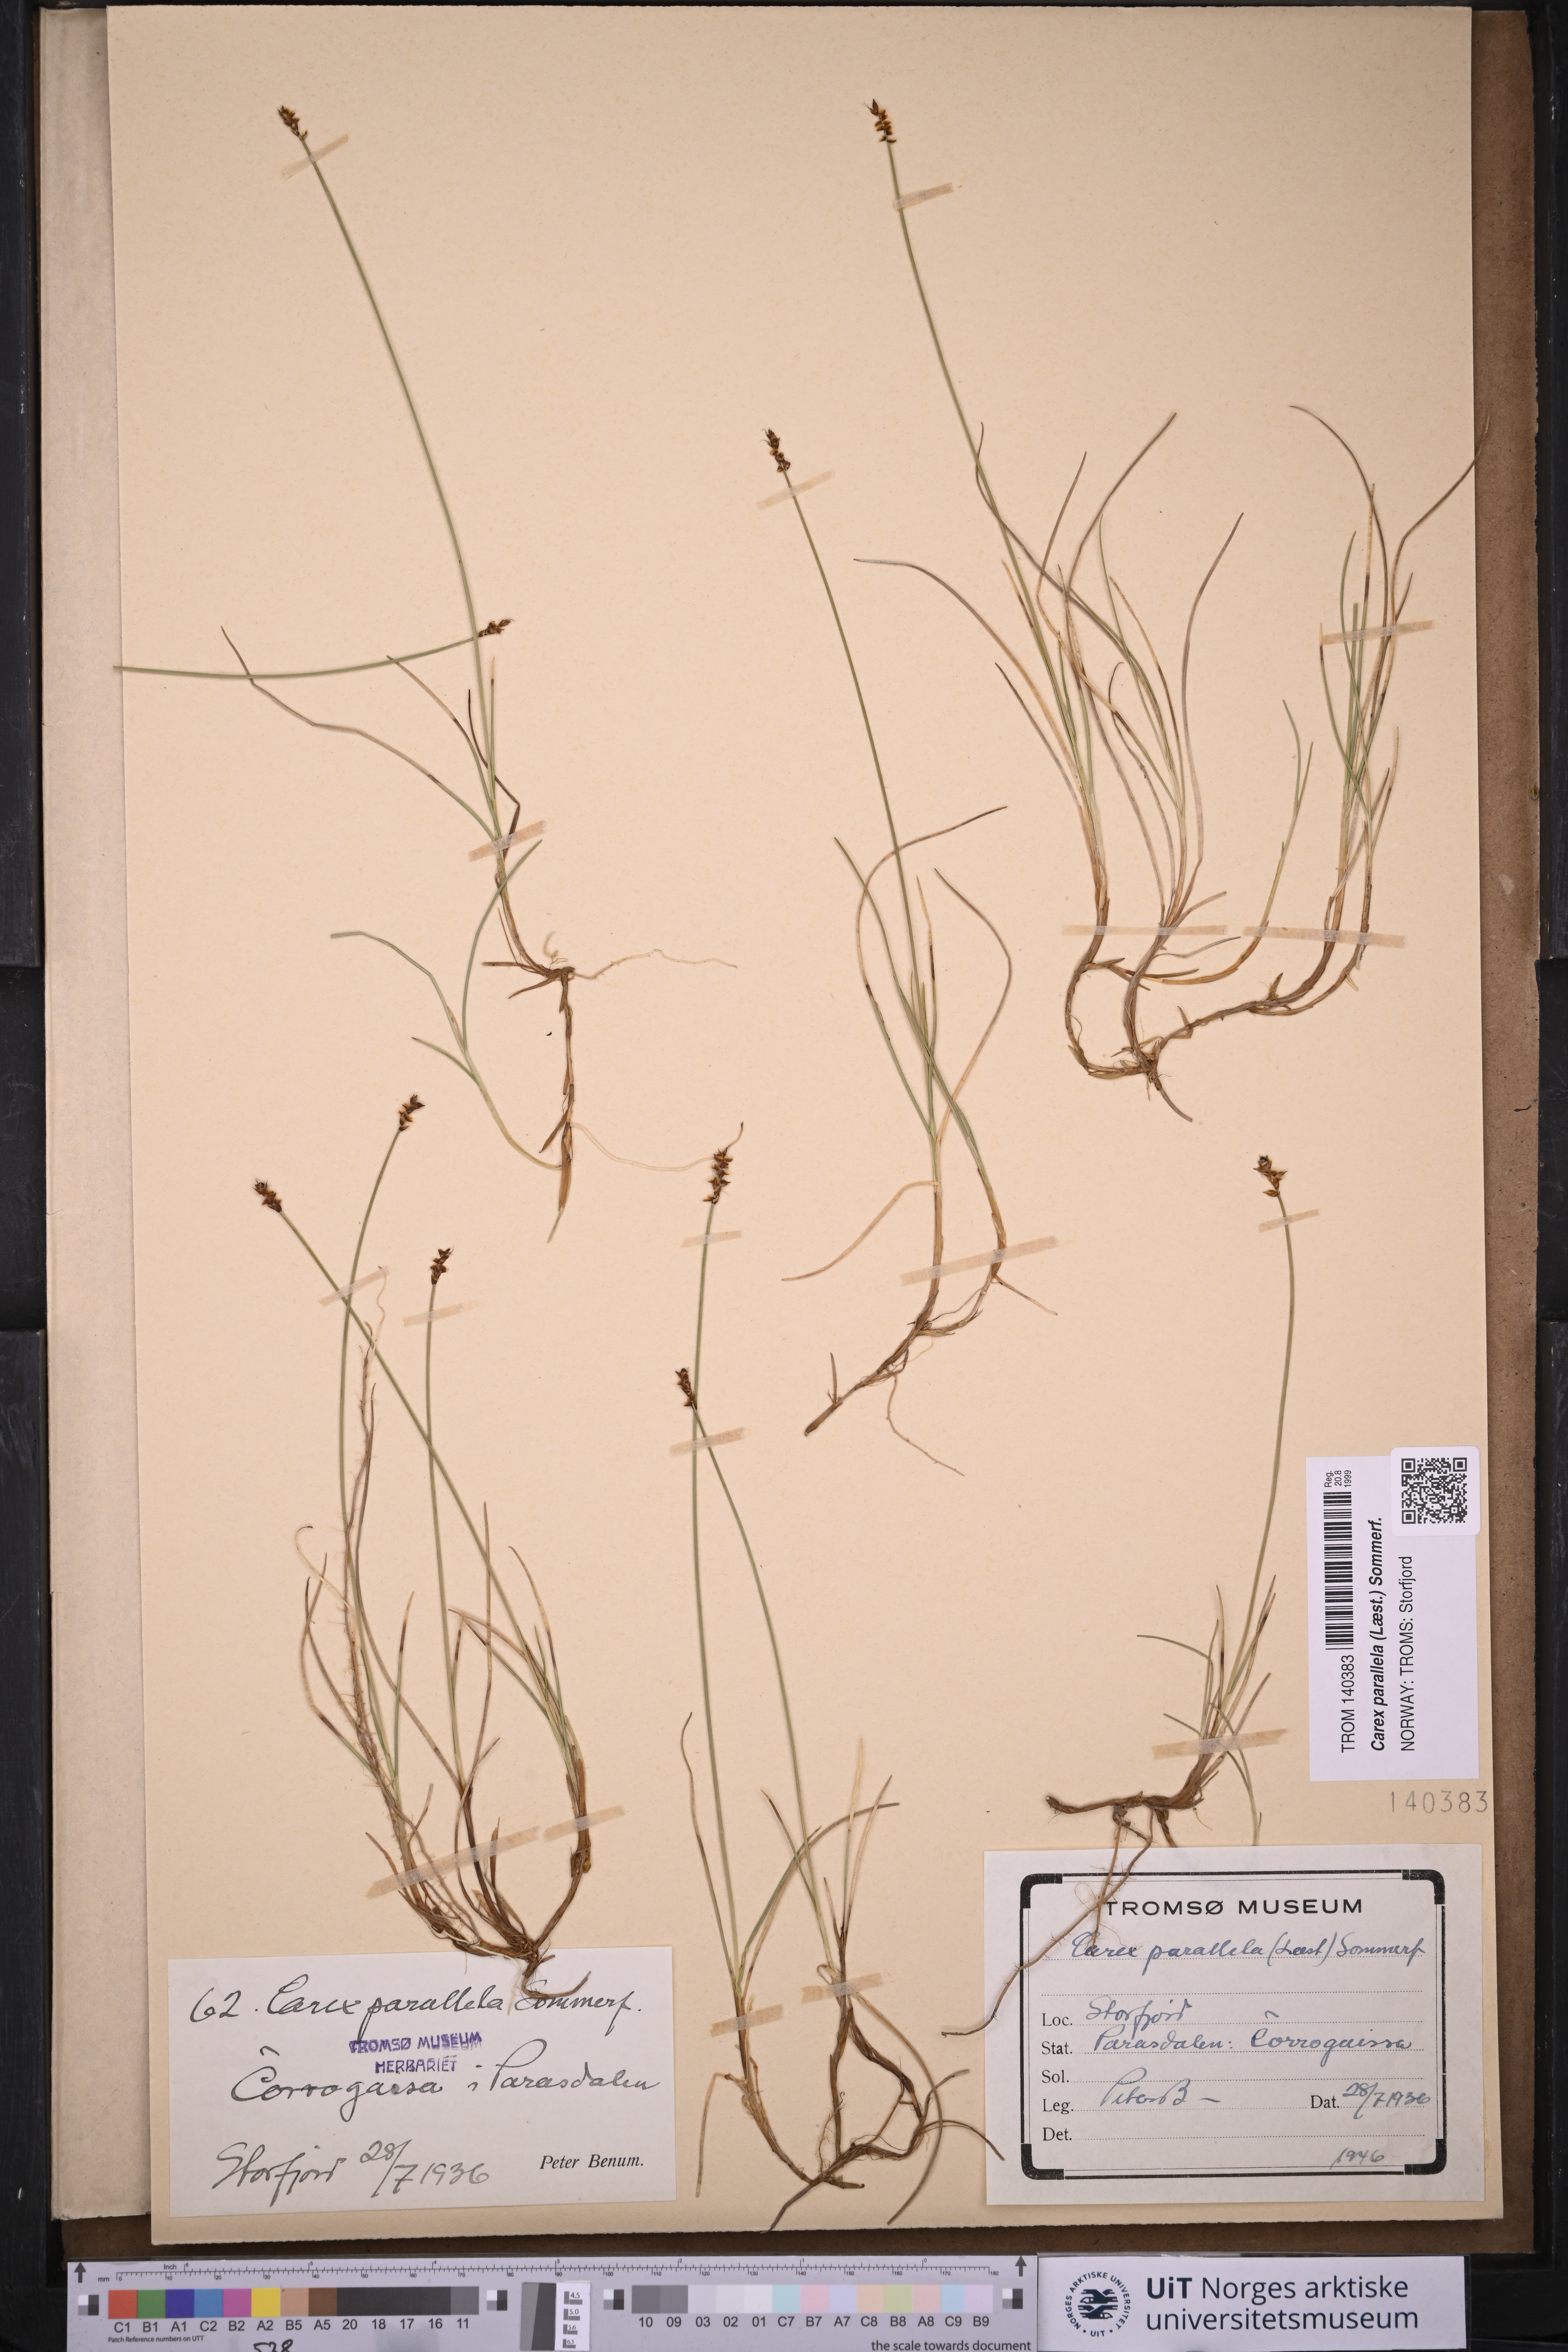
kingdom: Plantae
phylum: Tracheophyta
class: Liliopsida
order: Poales
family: Cyperaceae
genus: Carex
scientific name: Carex parallela
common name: Parallel sedge
